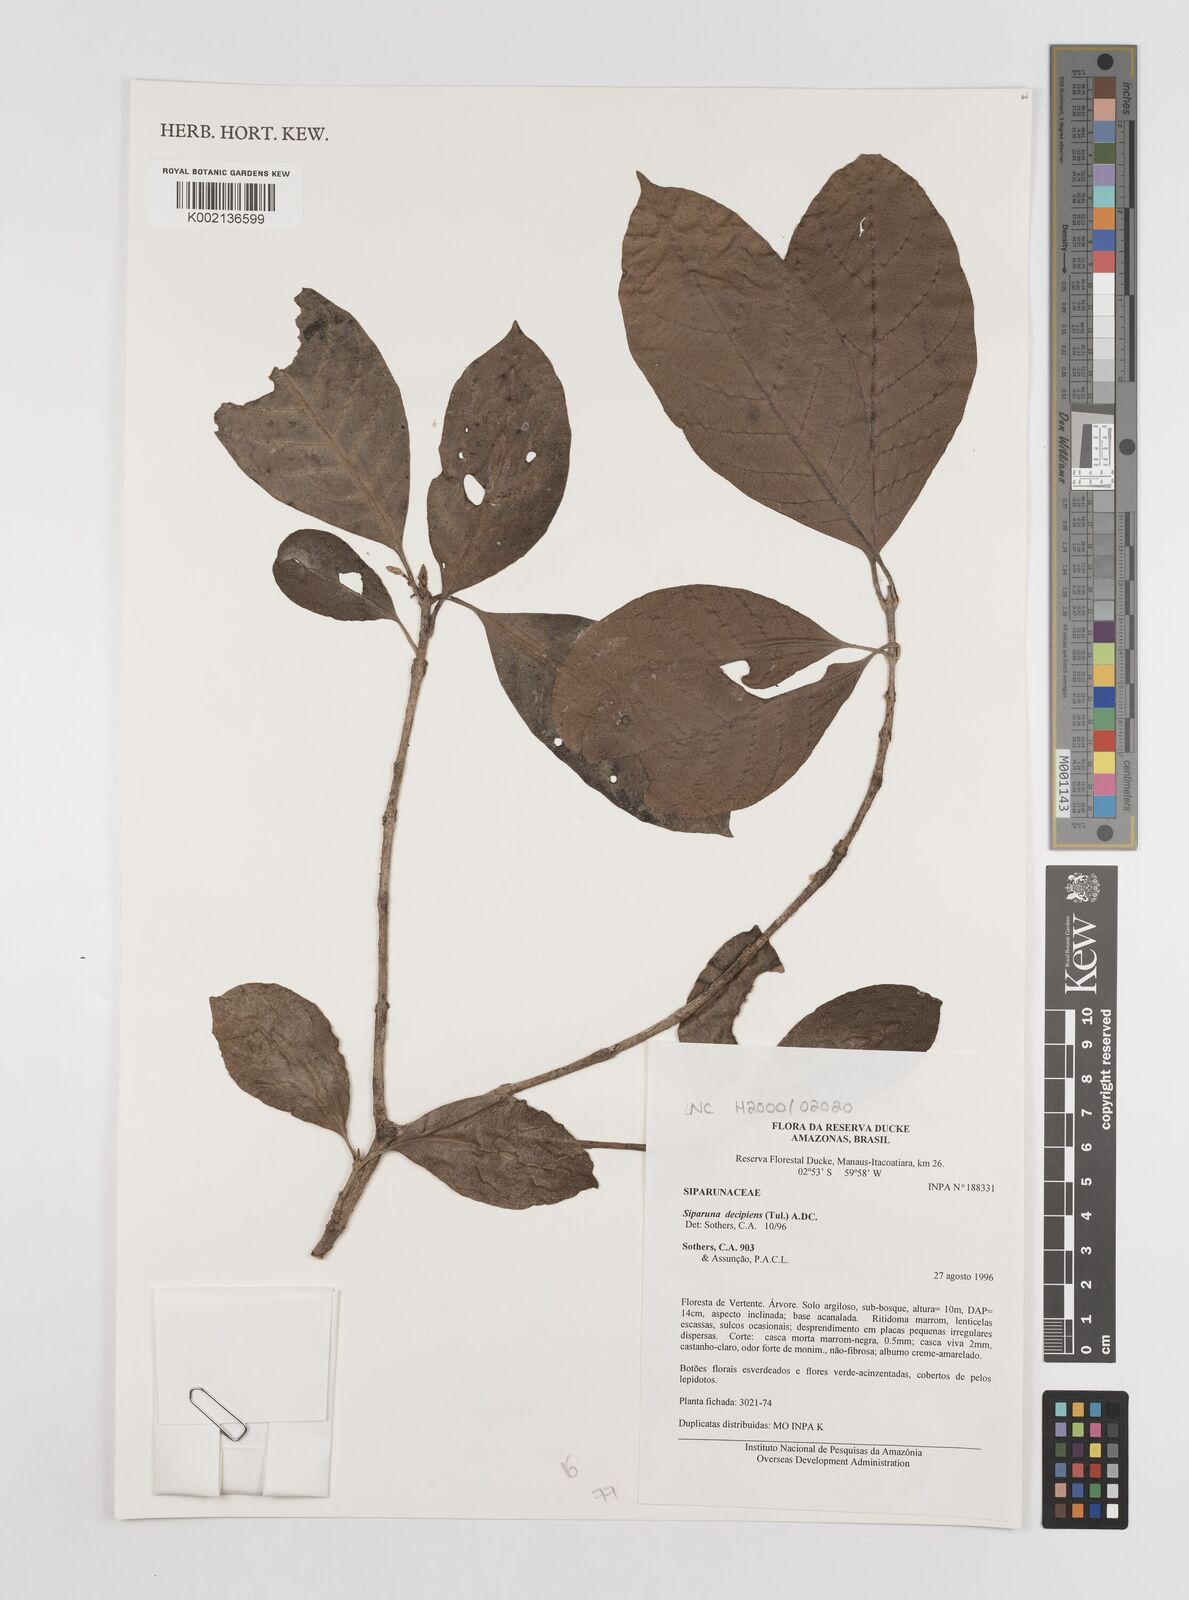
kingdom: Plantae
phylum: Tracheophyta
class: Magnoliopsida
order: Laurales
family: Siparunaceae
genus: Siparuna
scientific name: Siparuna decipiens
